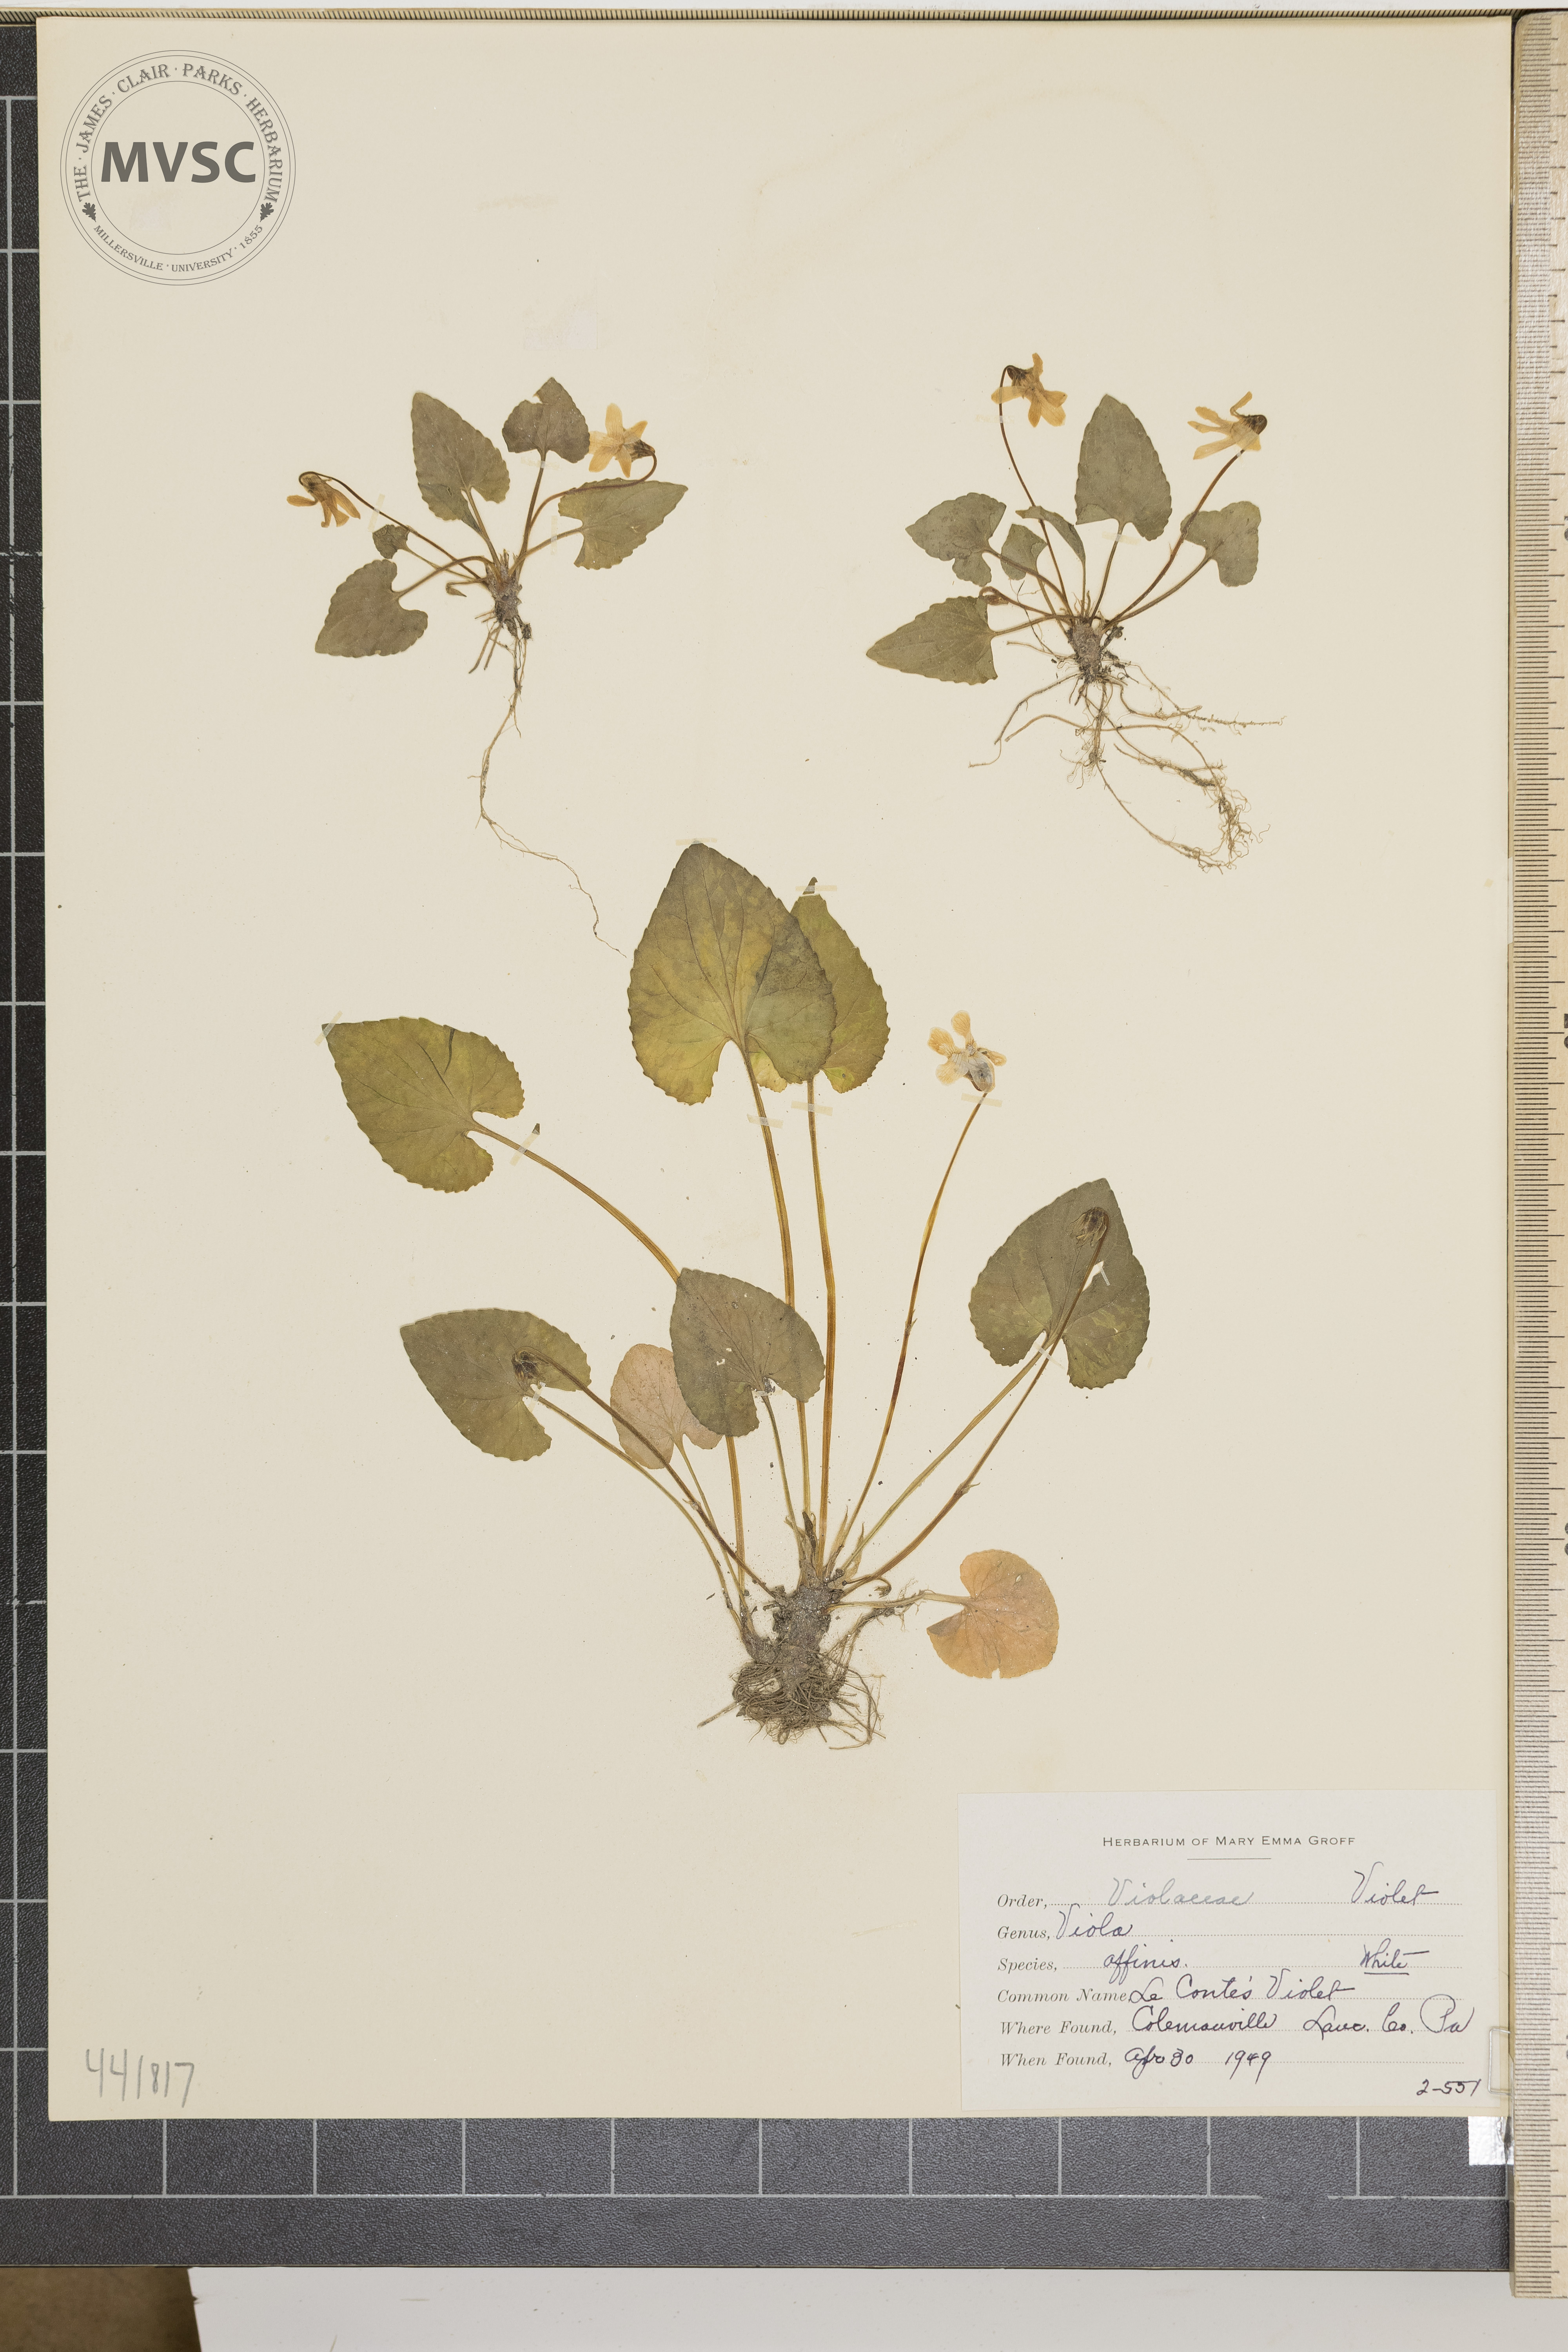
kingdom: Plantae
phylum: Tracheophyta
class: Magnoliopsida
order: Malpighiales
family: Violaceae
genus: Viola
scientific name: Viola affinis
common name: Le Conte's violet
